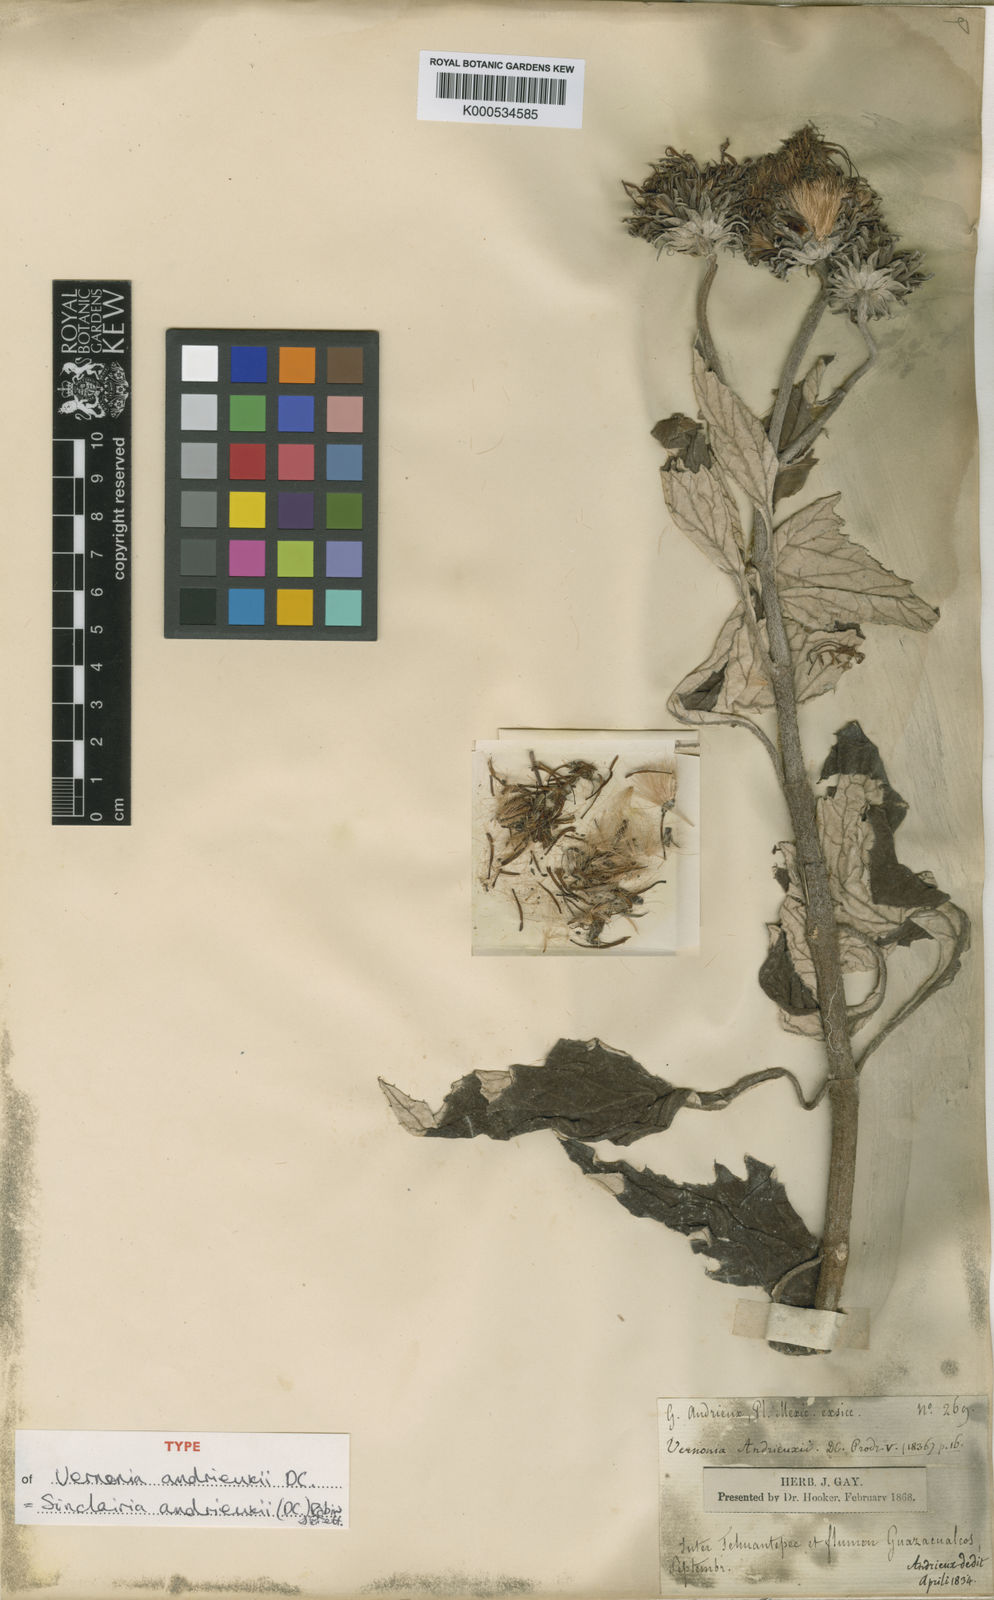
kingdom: Plantae
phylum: Tracheophyta
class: Magnoliopsida
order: Asterales
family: Asteraceae
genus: Sinclairia
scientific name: Sinclairia andrieuxii
